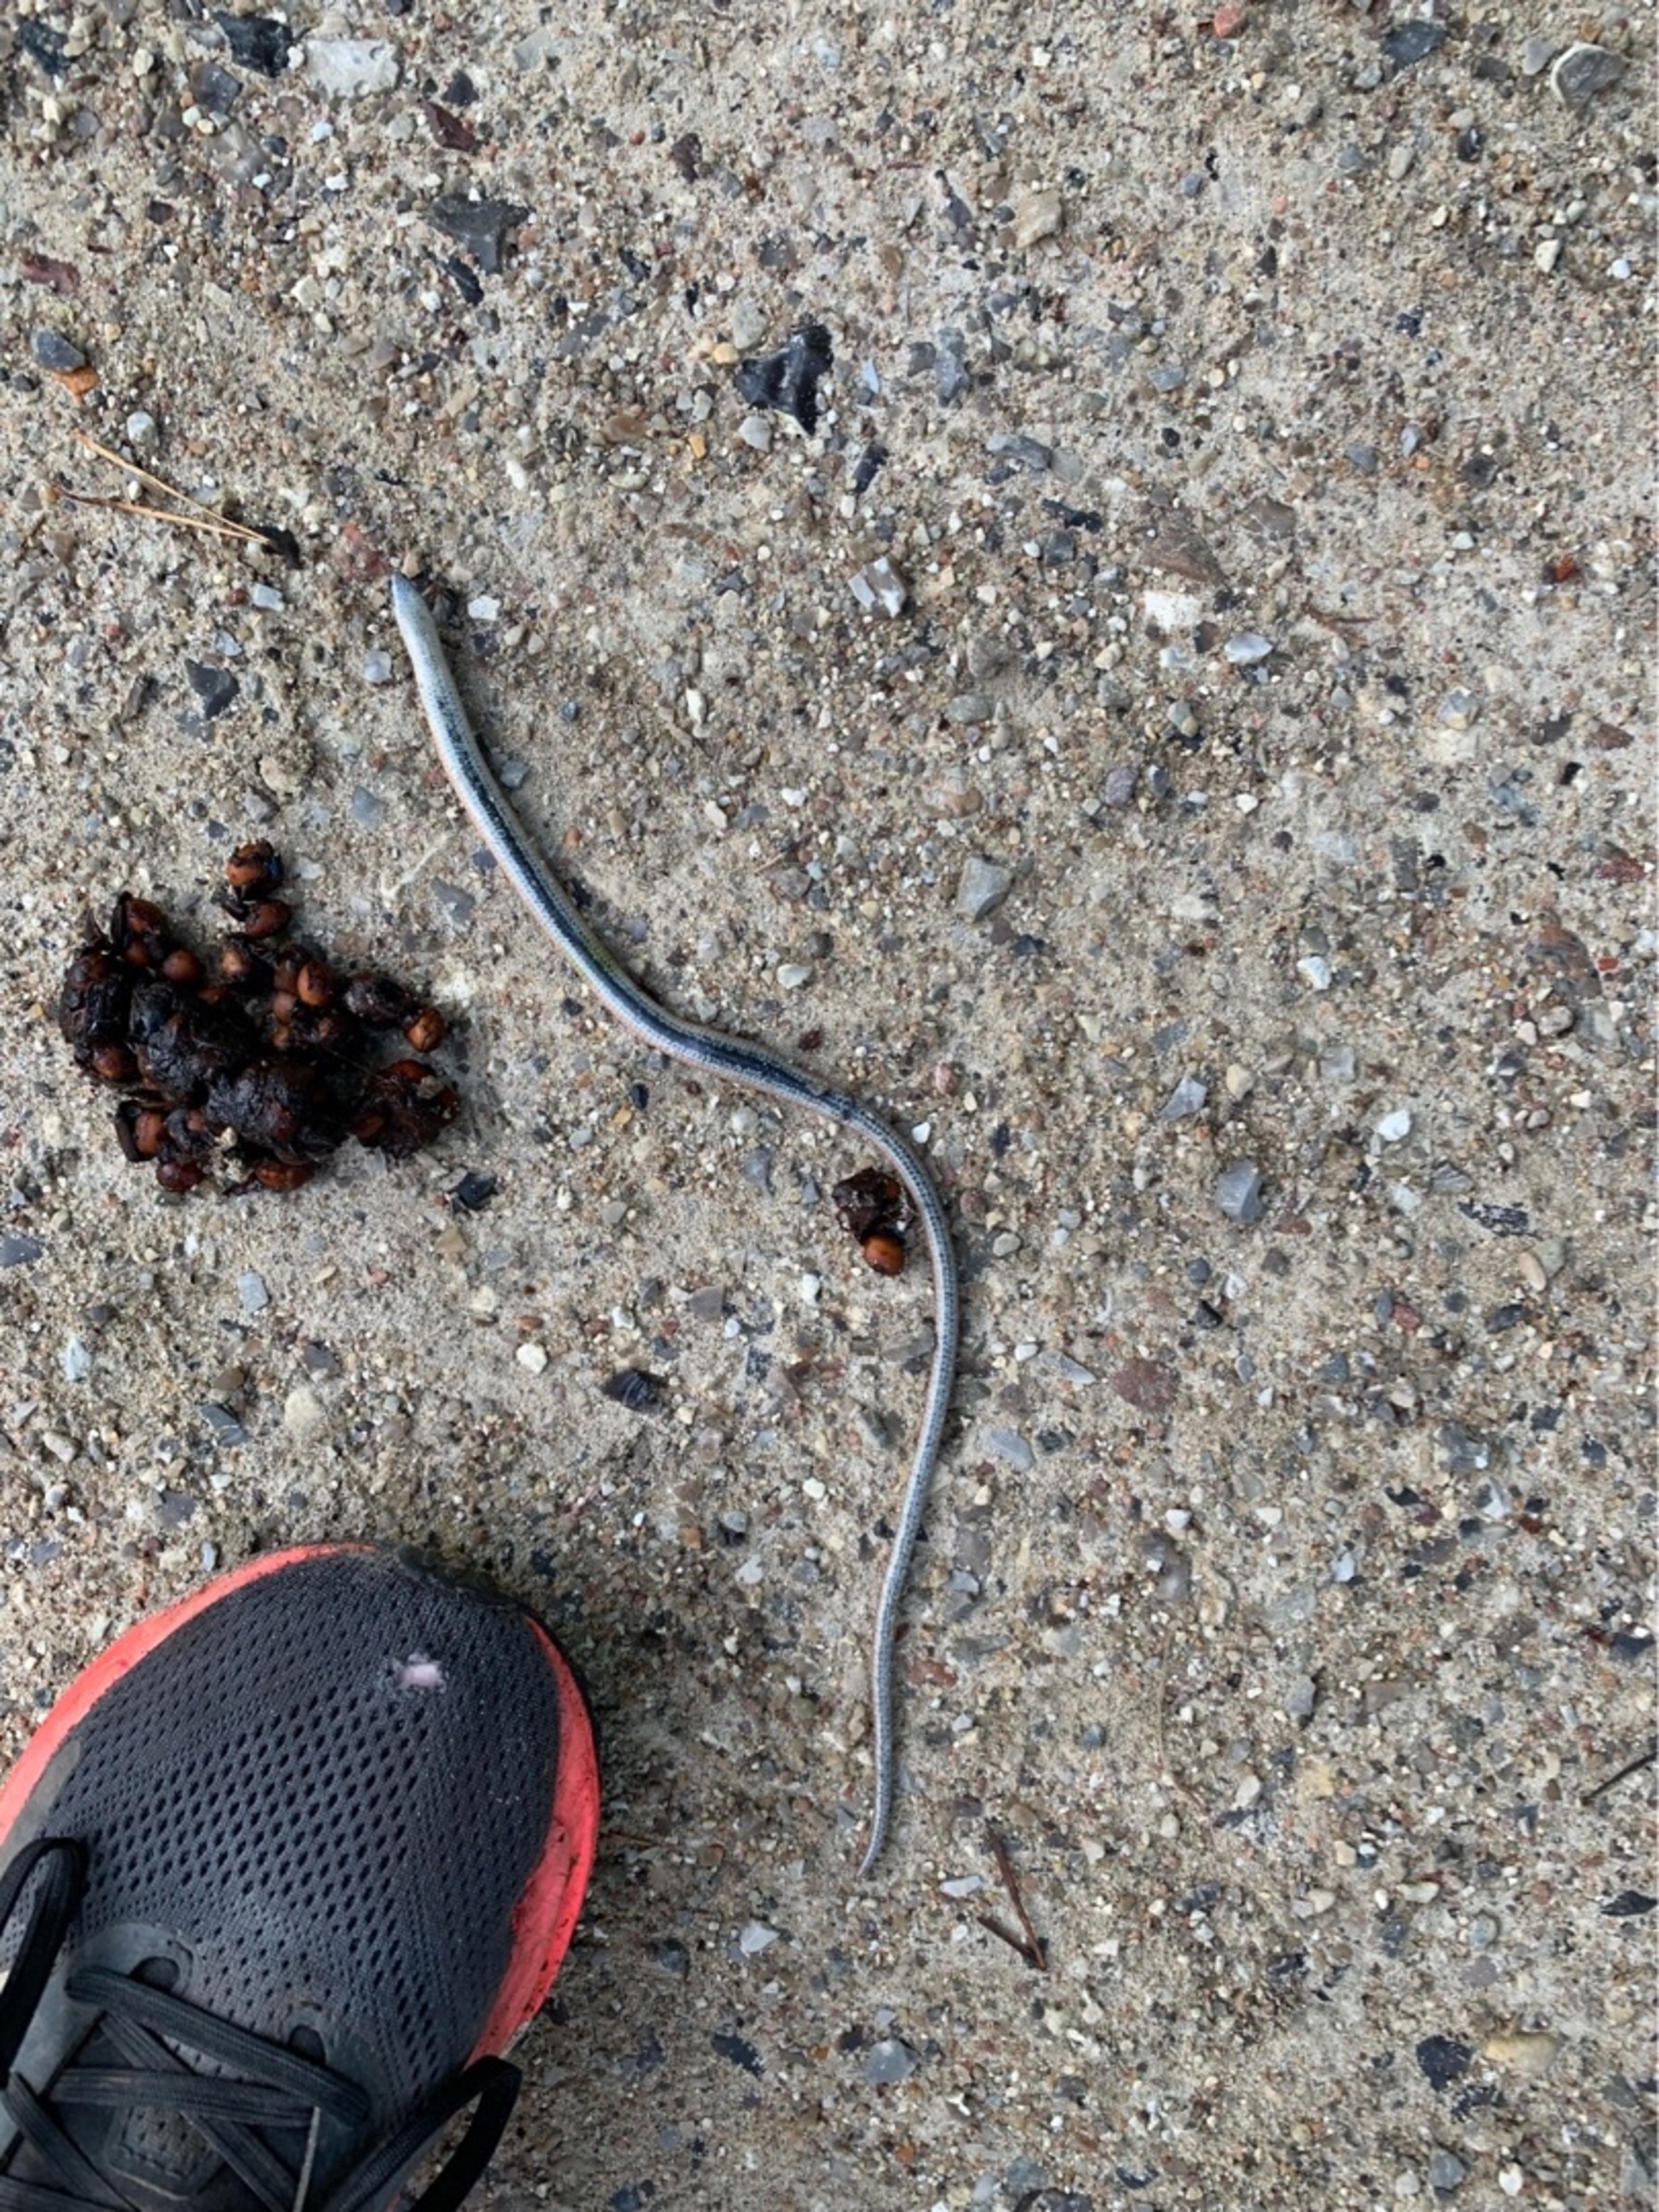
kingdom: Animalia
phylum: Chordata
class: Squamata
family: Anguidae
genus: Anguis
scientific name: Anguis fragilis
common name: Stålorm
